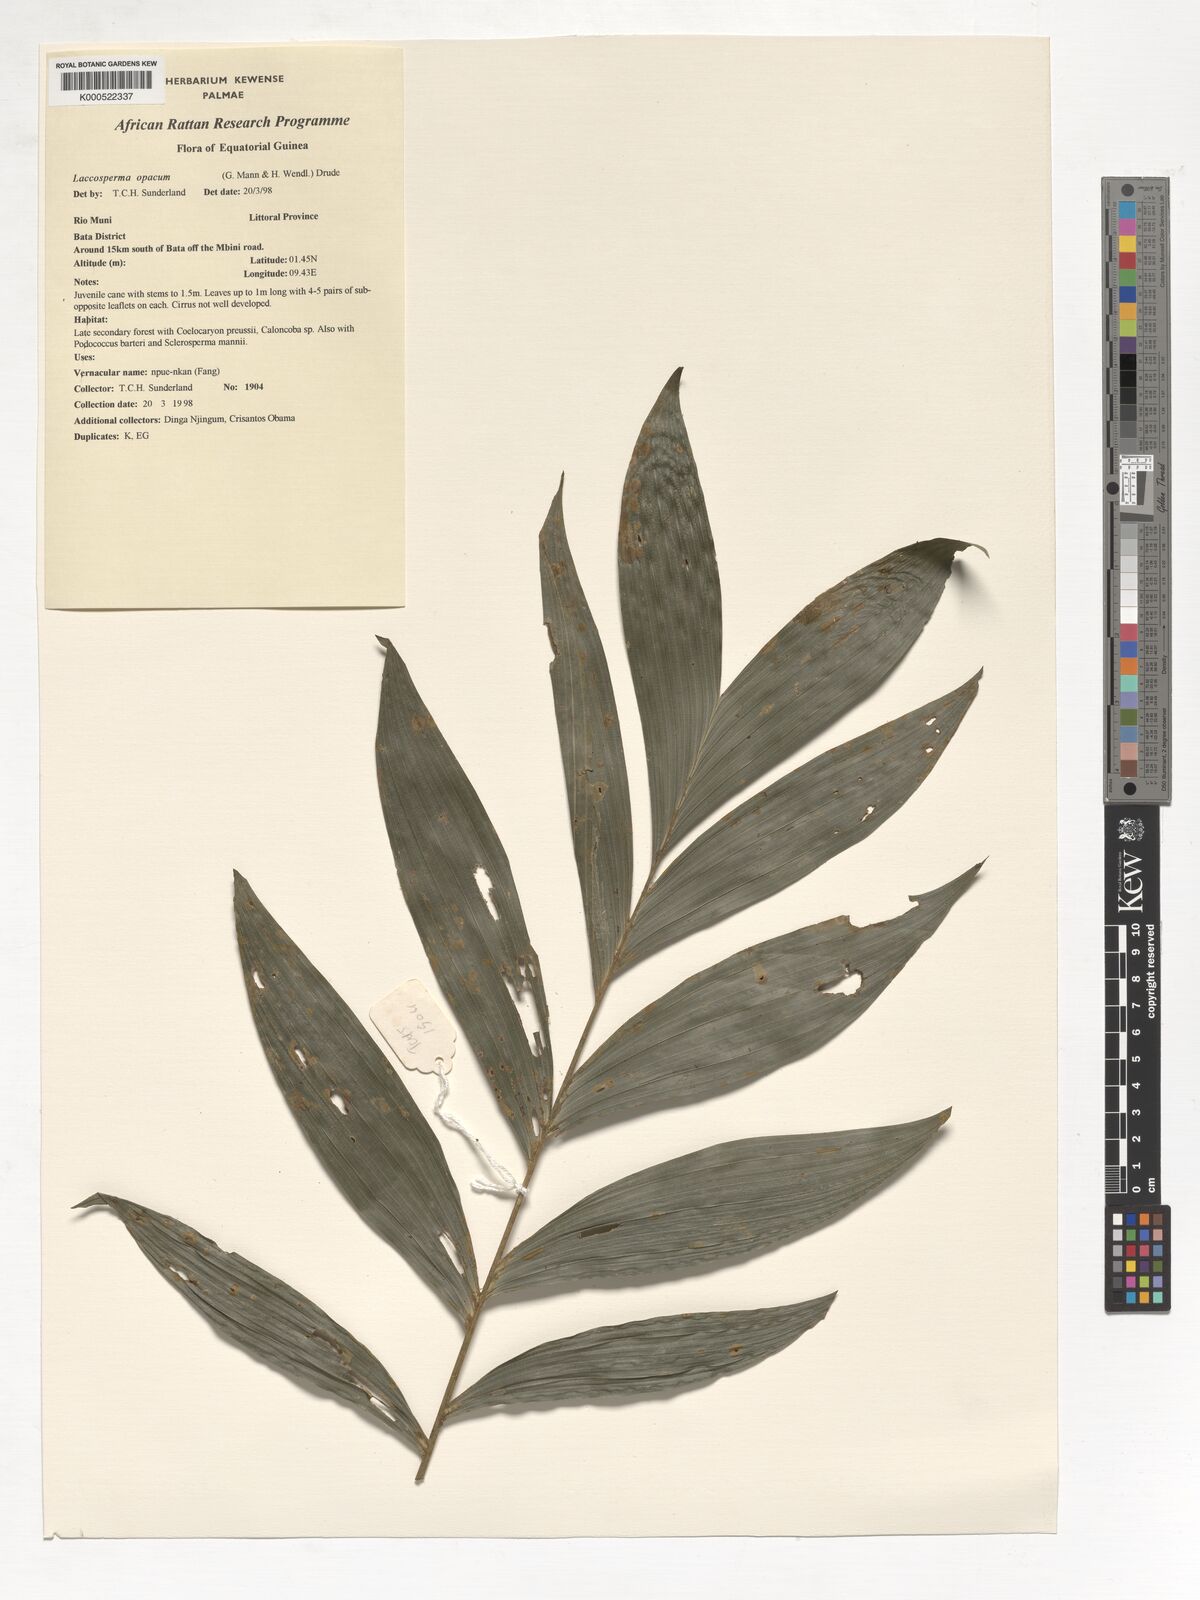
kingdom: Plantae
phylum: Tracheophyta
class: Liliopsida
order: Arecales
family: Arecaceae
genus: Laccosperma
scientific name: Laccosperma opacum
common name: Rattan
